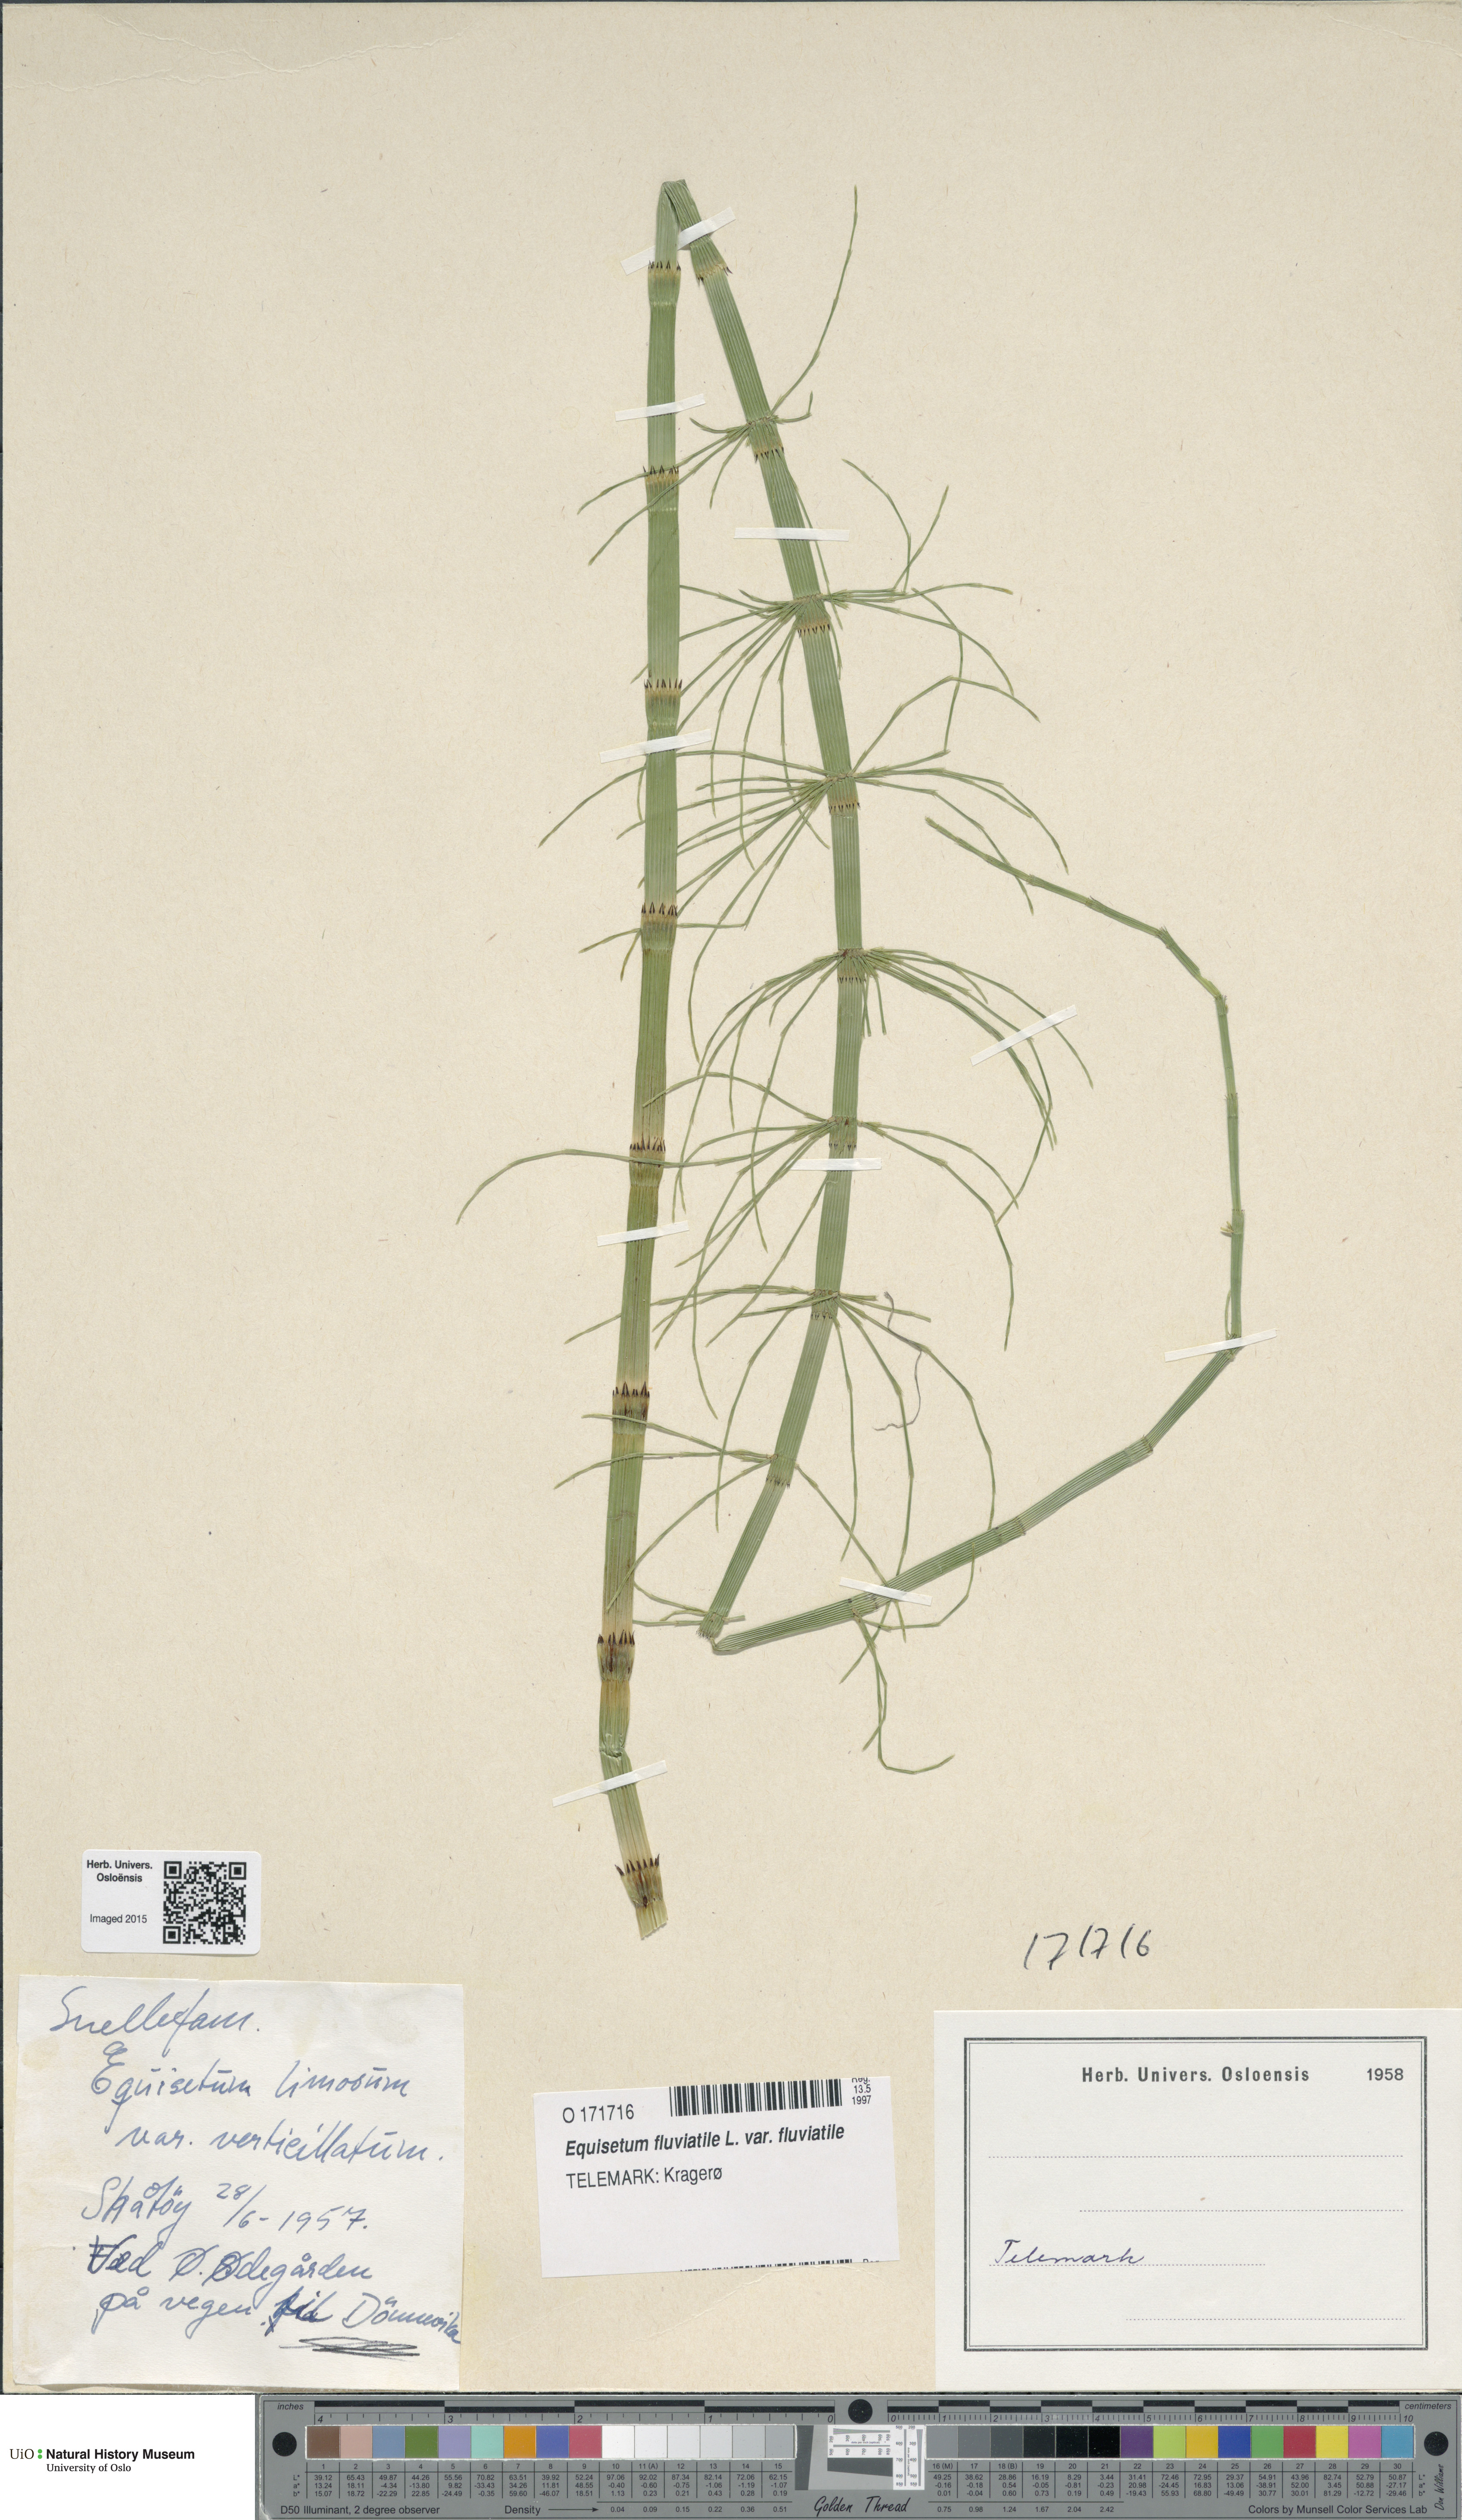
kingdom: Plantae
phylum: Tracheophyta
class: Polypodiopsida
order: Equisetales
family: Equisetaceae
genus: Equisetum
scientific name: Equisetum fluviatile
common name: Water horsetail
